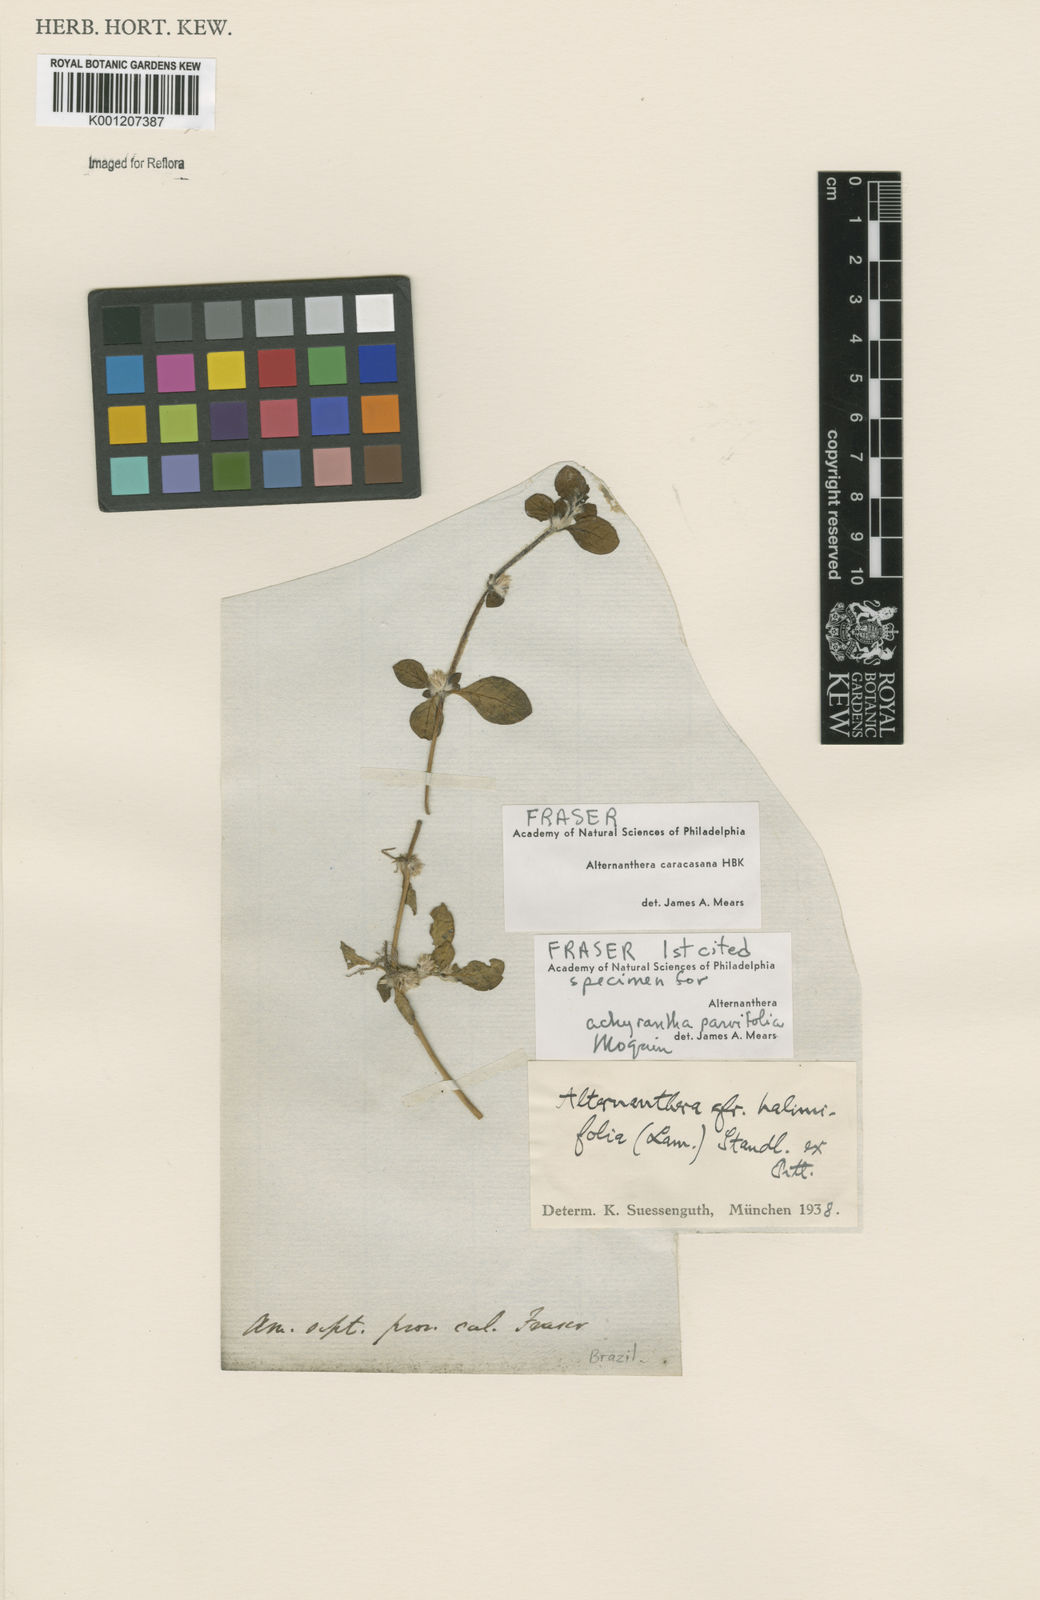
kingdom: Plantae
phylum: Tracheophyta
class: Magnoliopsida
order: Caryophyllales
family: Amaranthaceae
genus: Alternanthera
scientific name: Alternanthera caracasana
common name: Washerwoman
